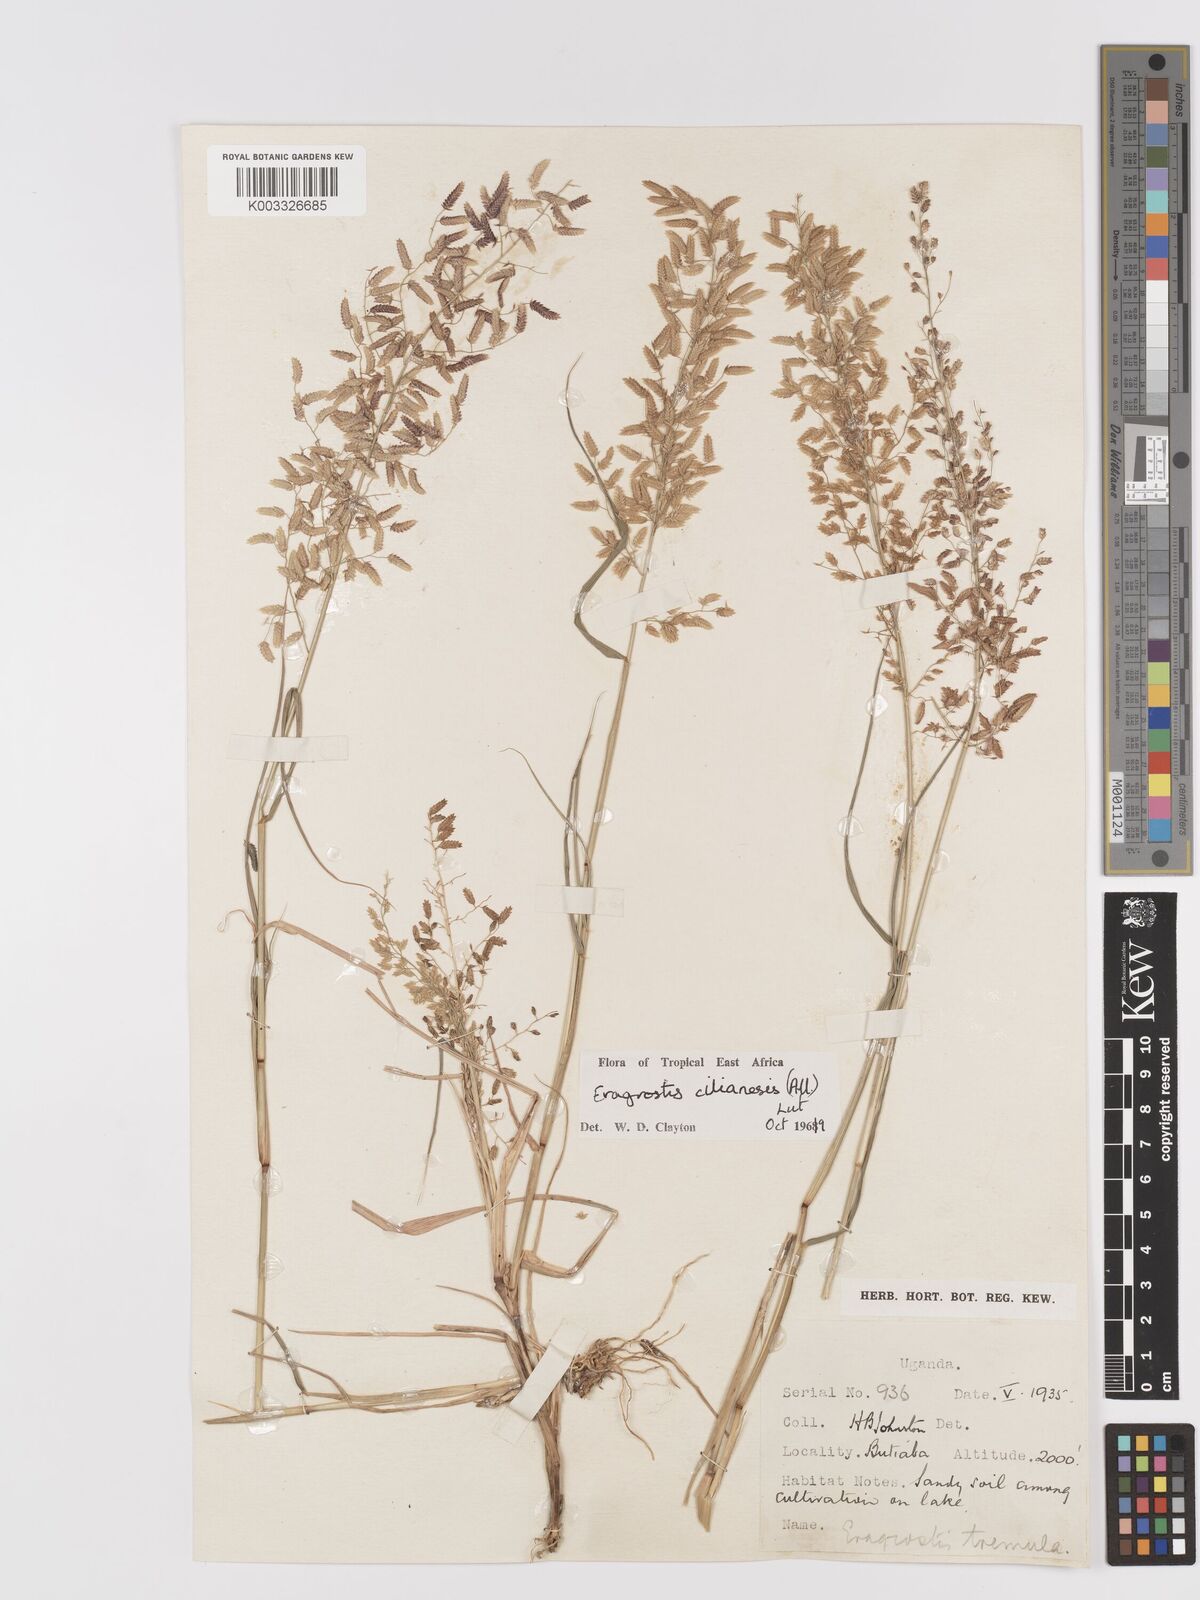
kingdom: Plantae
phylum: Tracheophyta
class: Liliopsida
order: Poales
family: Poaceae
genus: Eragrostis
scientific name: Eragrostis cilianensis
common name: Stinkgrass
